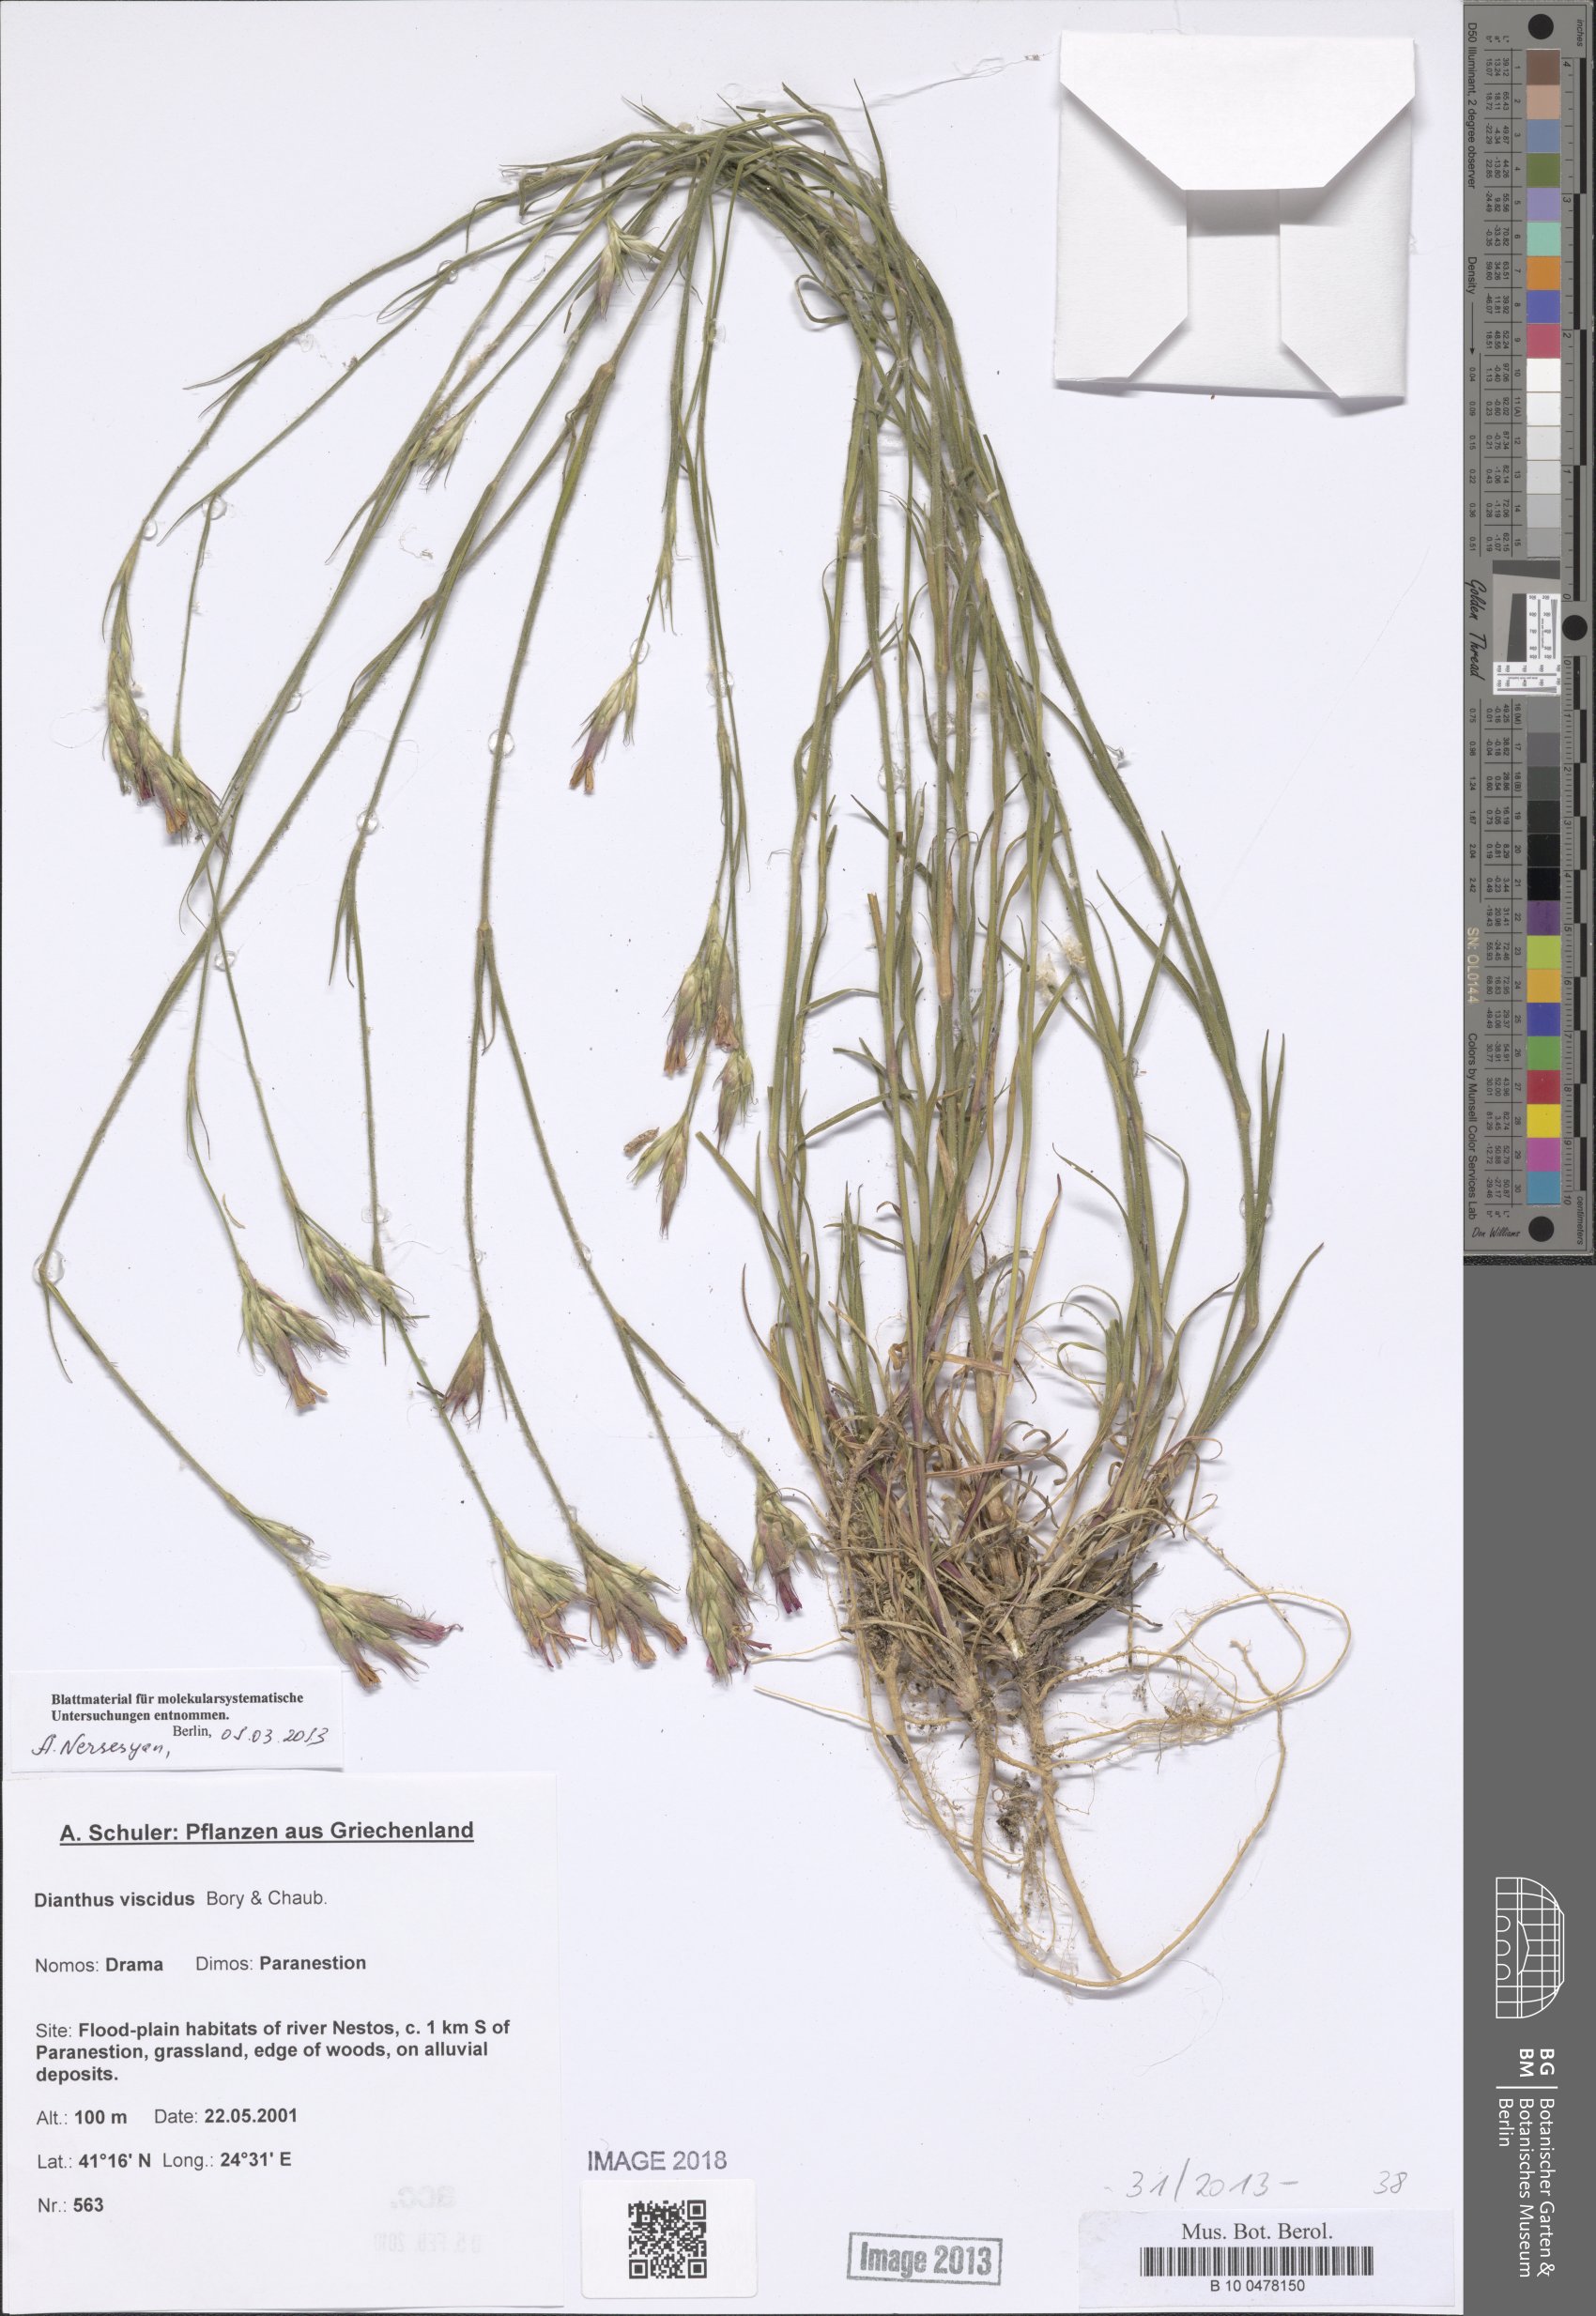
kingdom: Plantae
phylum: Tracheophyta
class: Magnoliopsida
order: Caryophyllales
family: Caryophyllaceae
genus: Dianthus
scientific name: Dianthus viscidus
